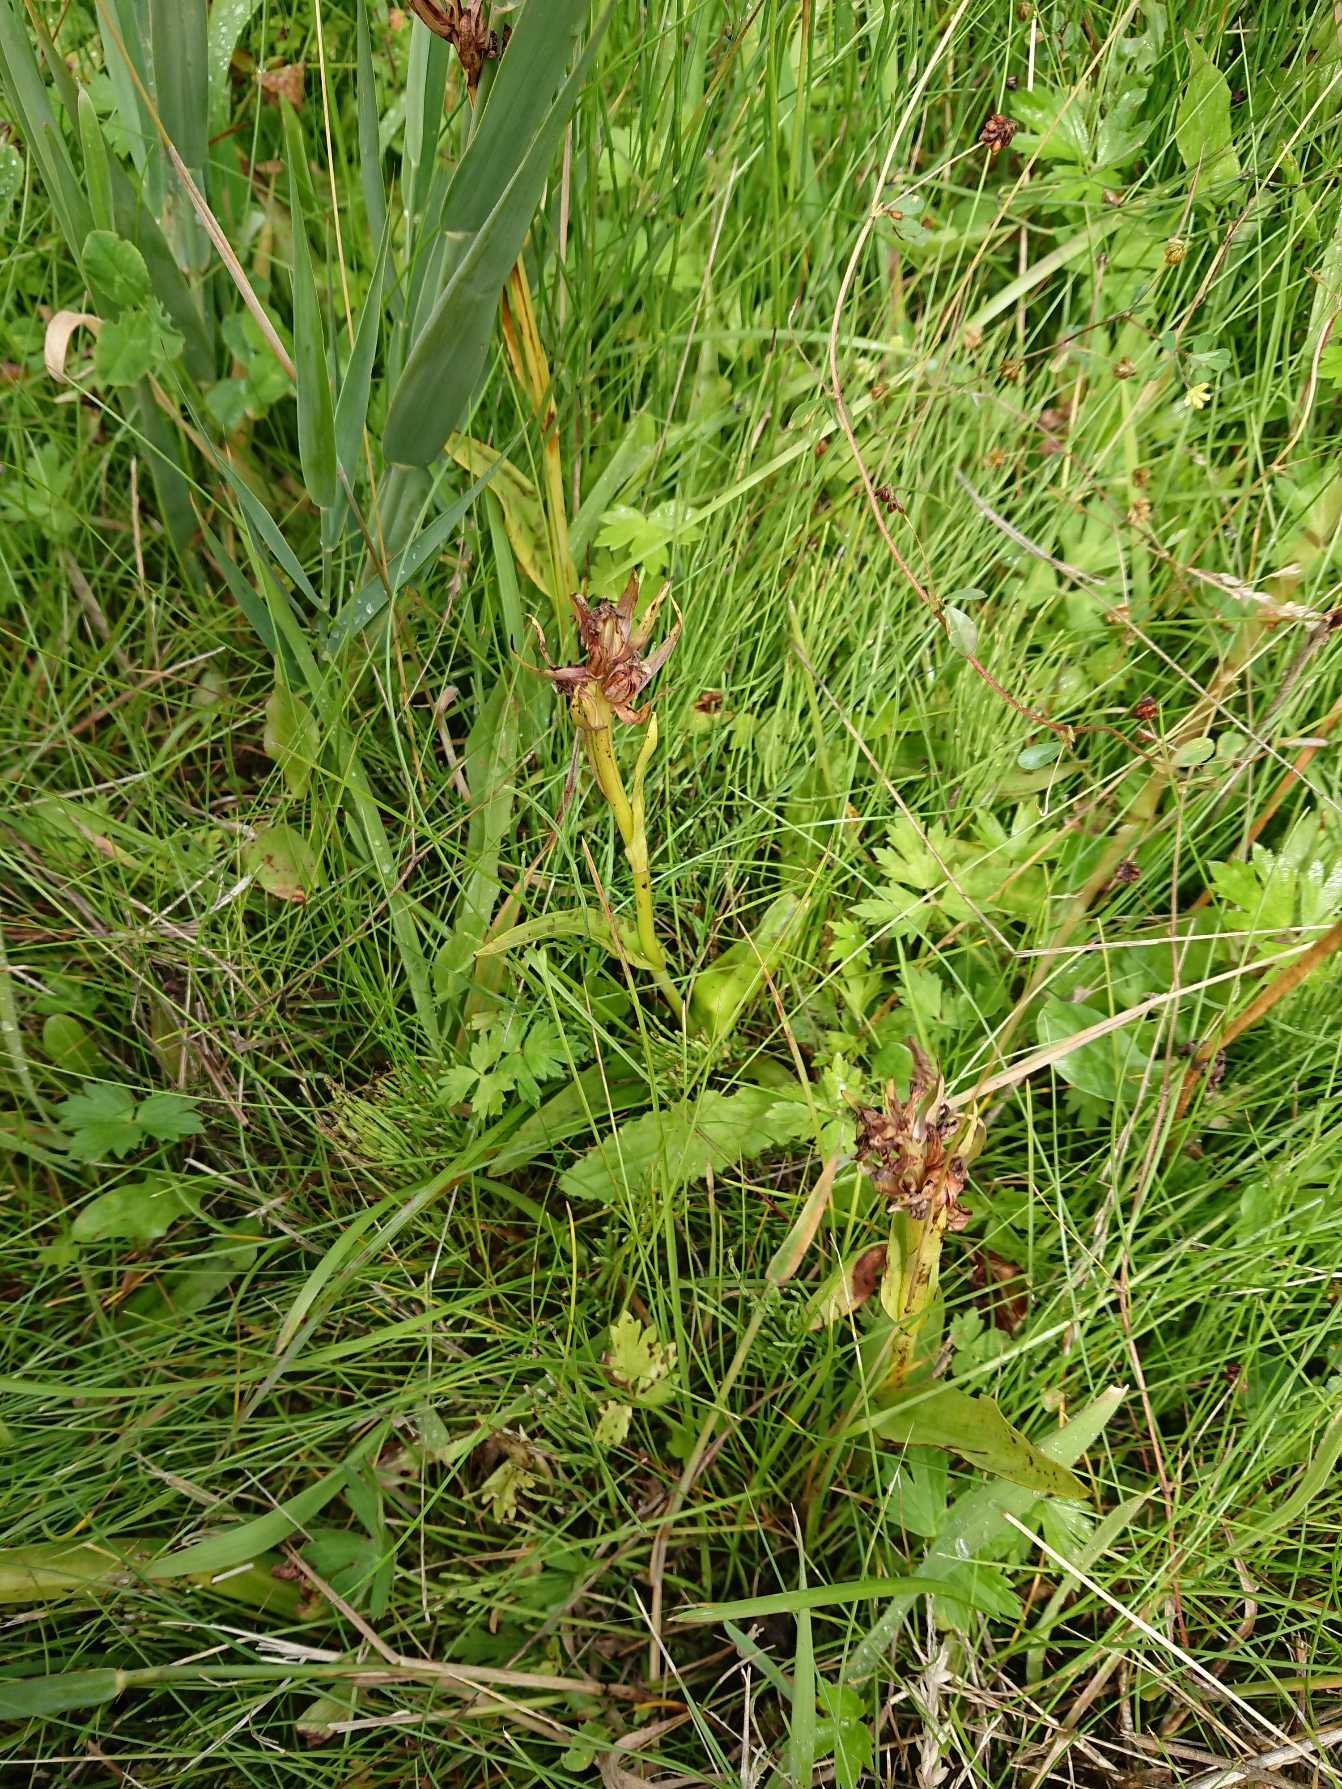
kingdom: Plantae
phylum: Tracheophyta
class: Liliopsida
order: Asparagales
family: Orchidaceae
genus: Dactylorhiza
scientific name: Dactylorhiza majalis
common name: Maj-gøgeurt (underart)
